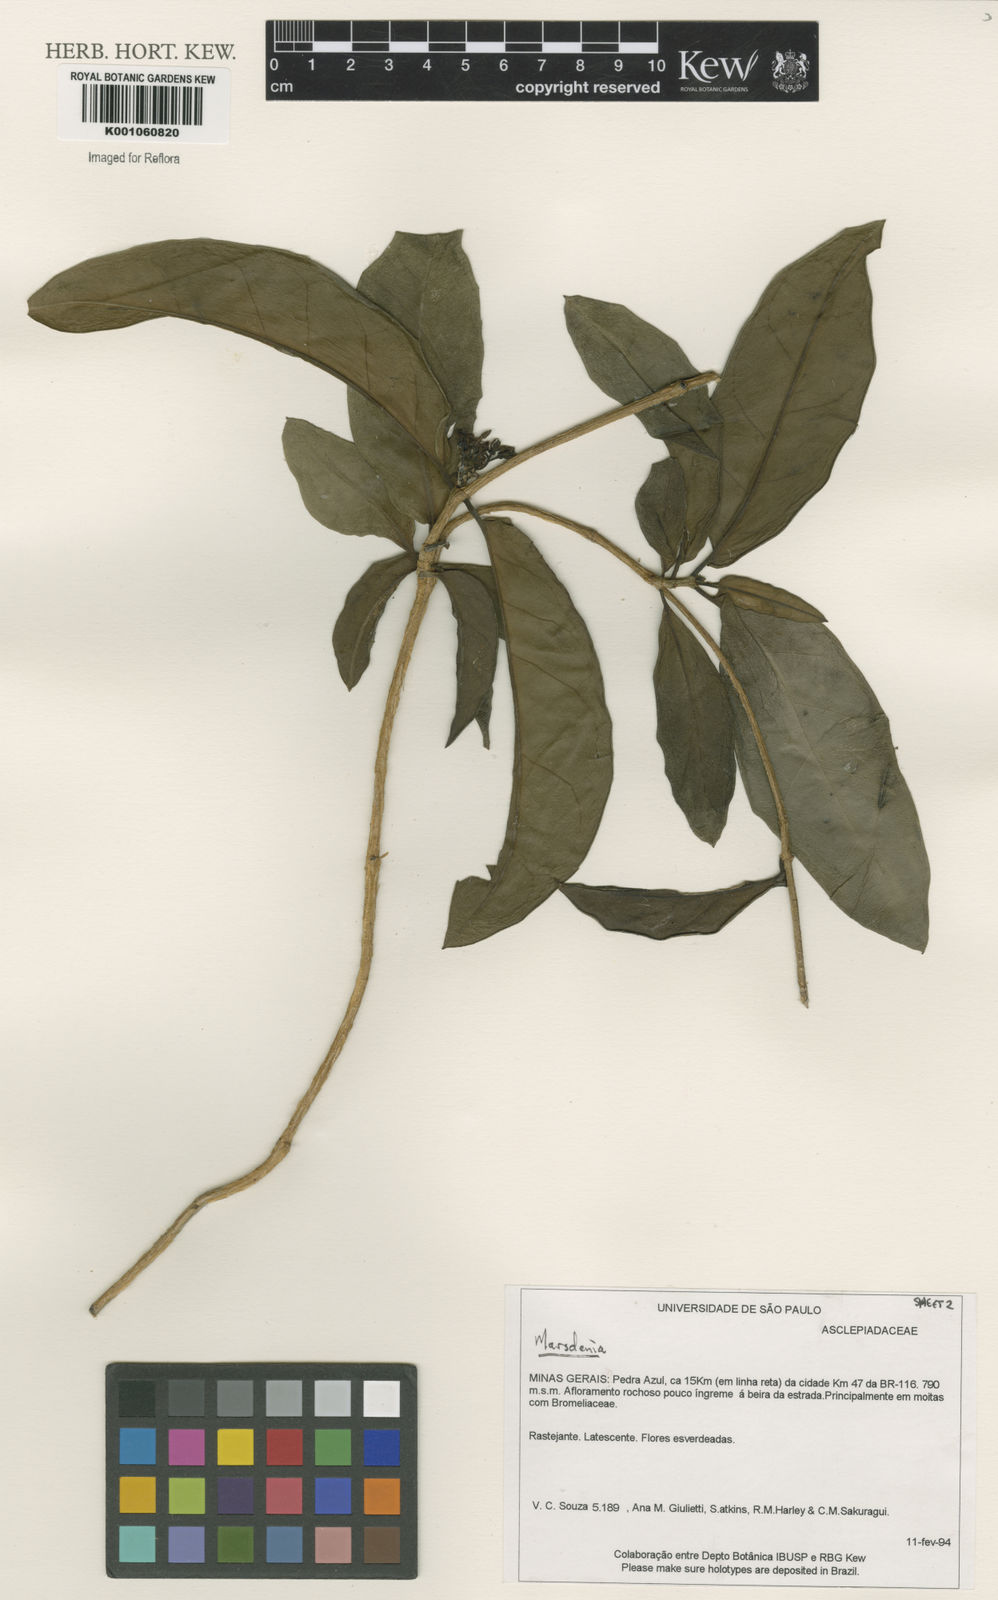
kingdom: Plantae
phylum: Tracheophyta
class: Magnoliopsida
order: Gentianales
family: Apocynaceae
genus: Marsdenia
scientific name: Marsdenia
